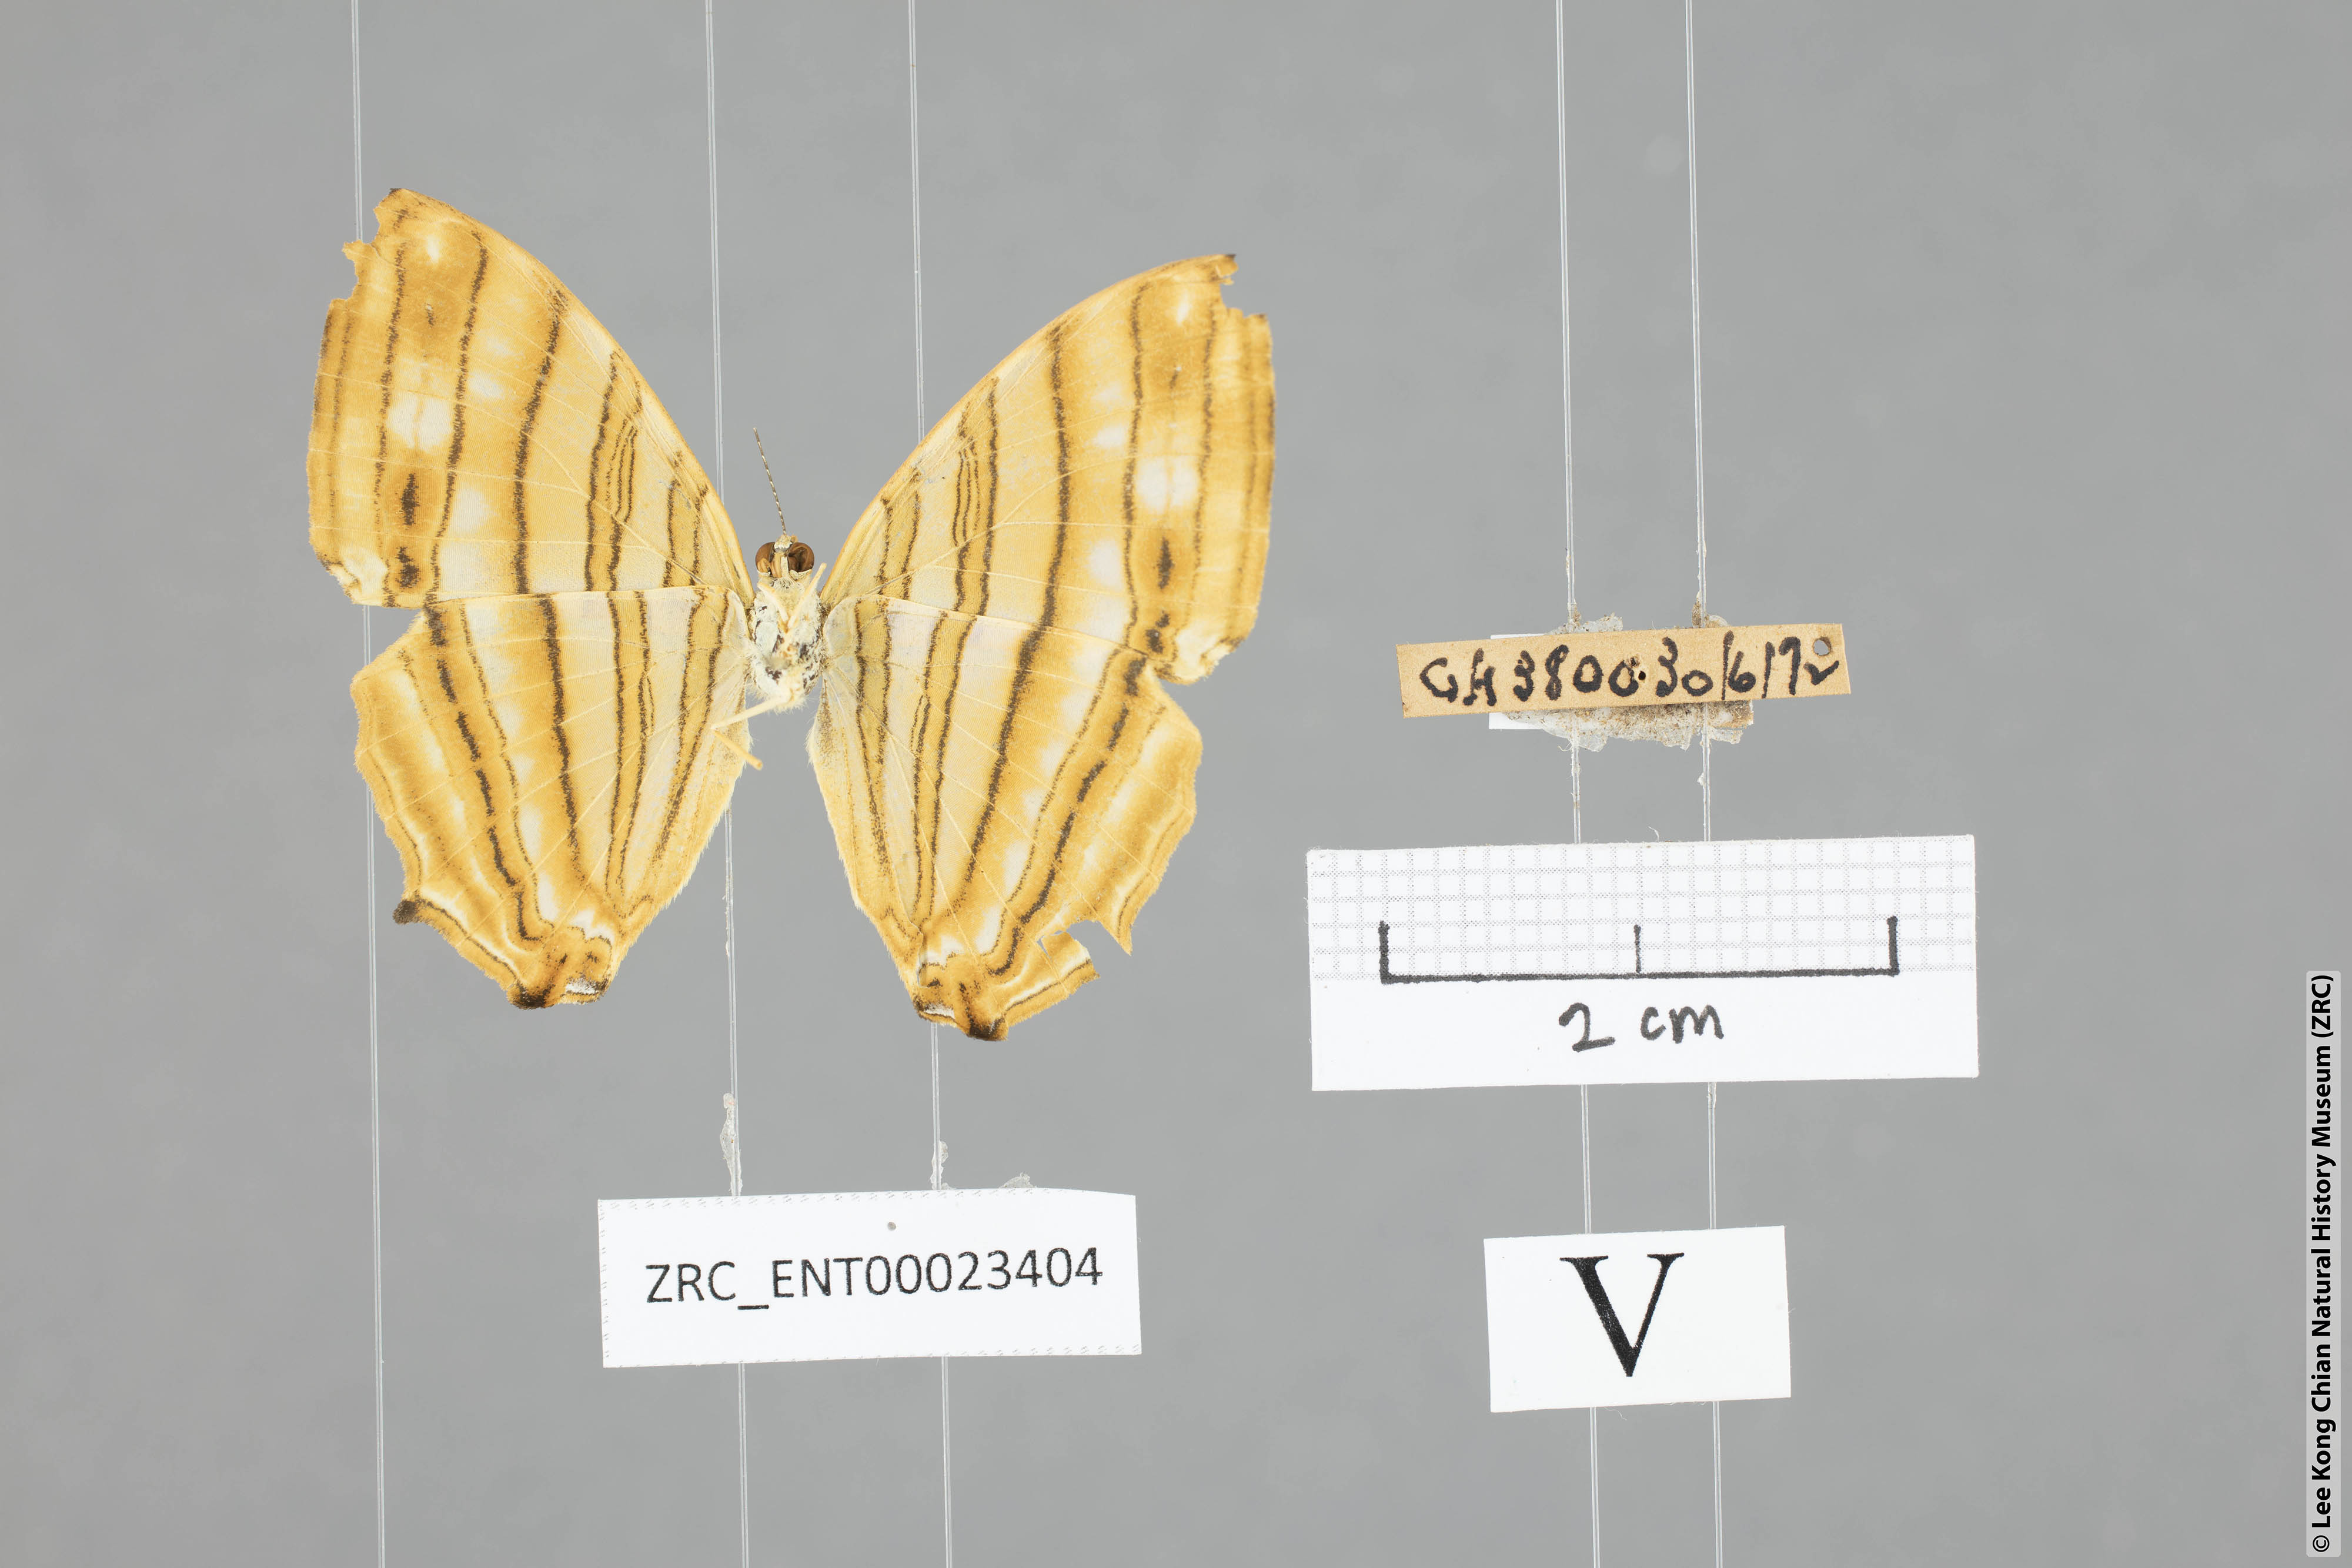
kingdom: Animalia
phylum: Arthropoda
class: Insecta
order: Lepidoptera
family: Nymphalidae
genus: Chersonesia
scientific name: Chersonesia risa
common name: Common maplet
